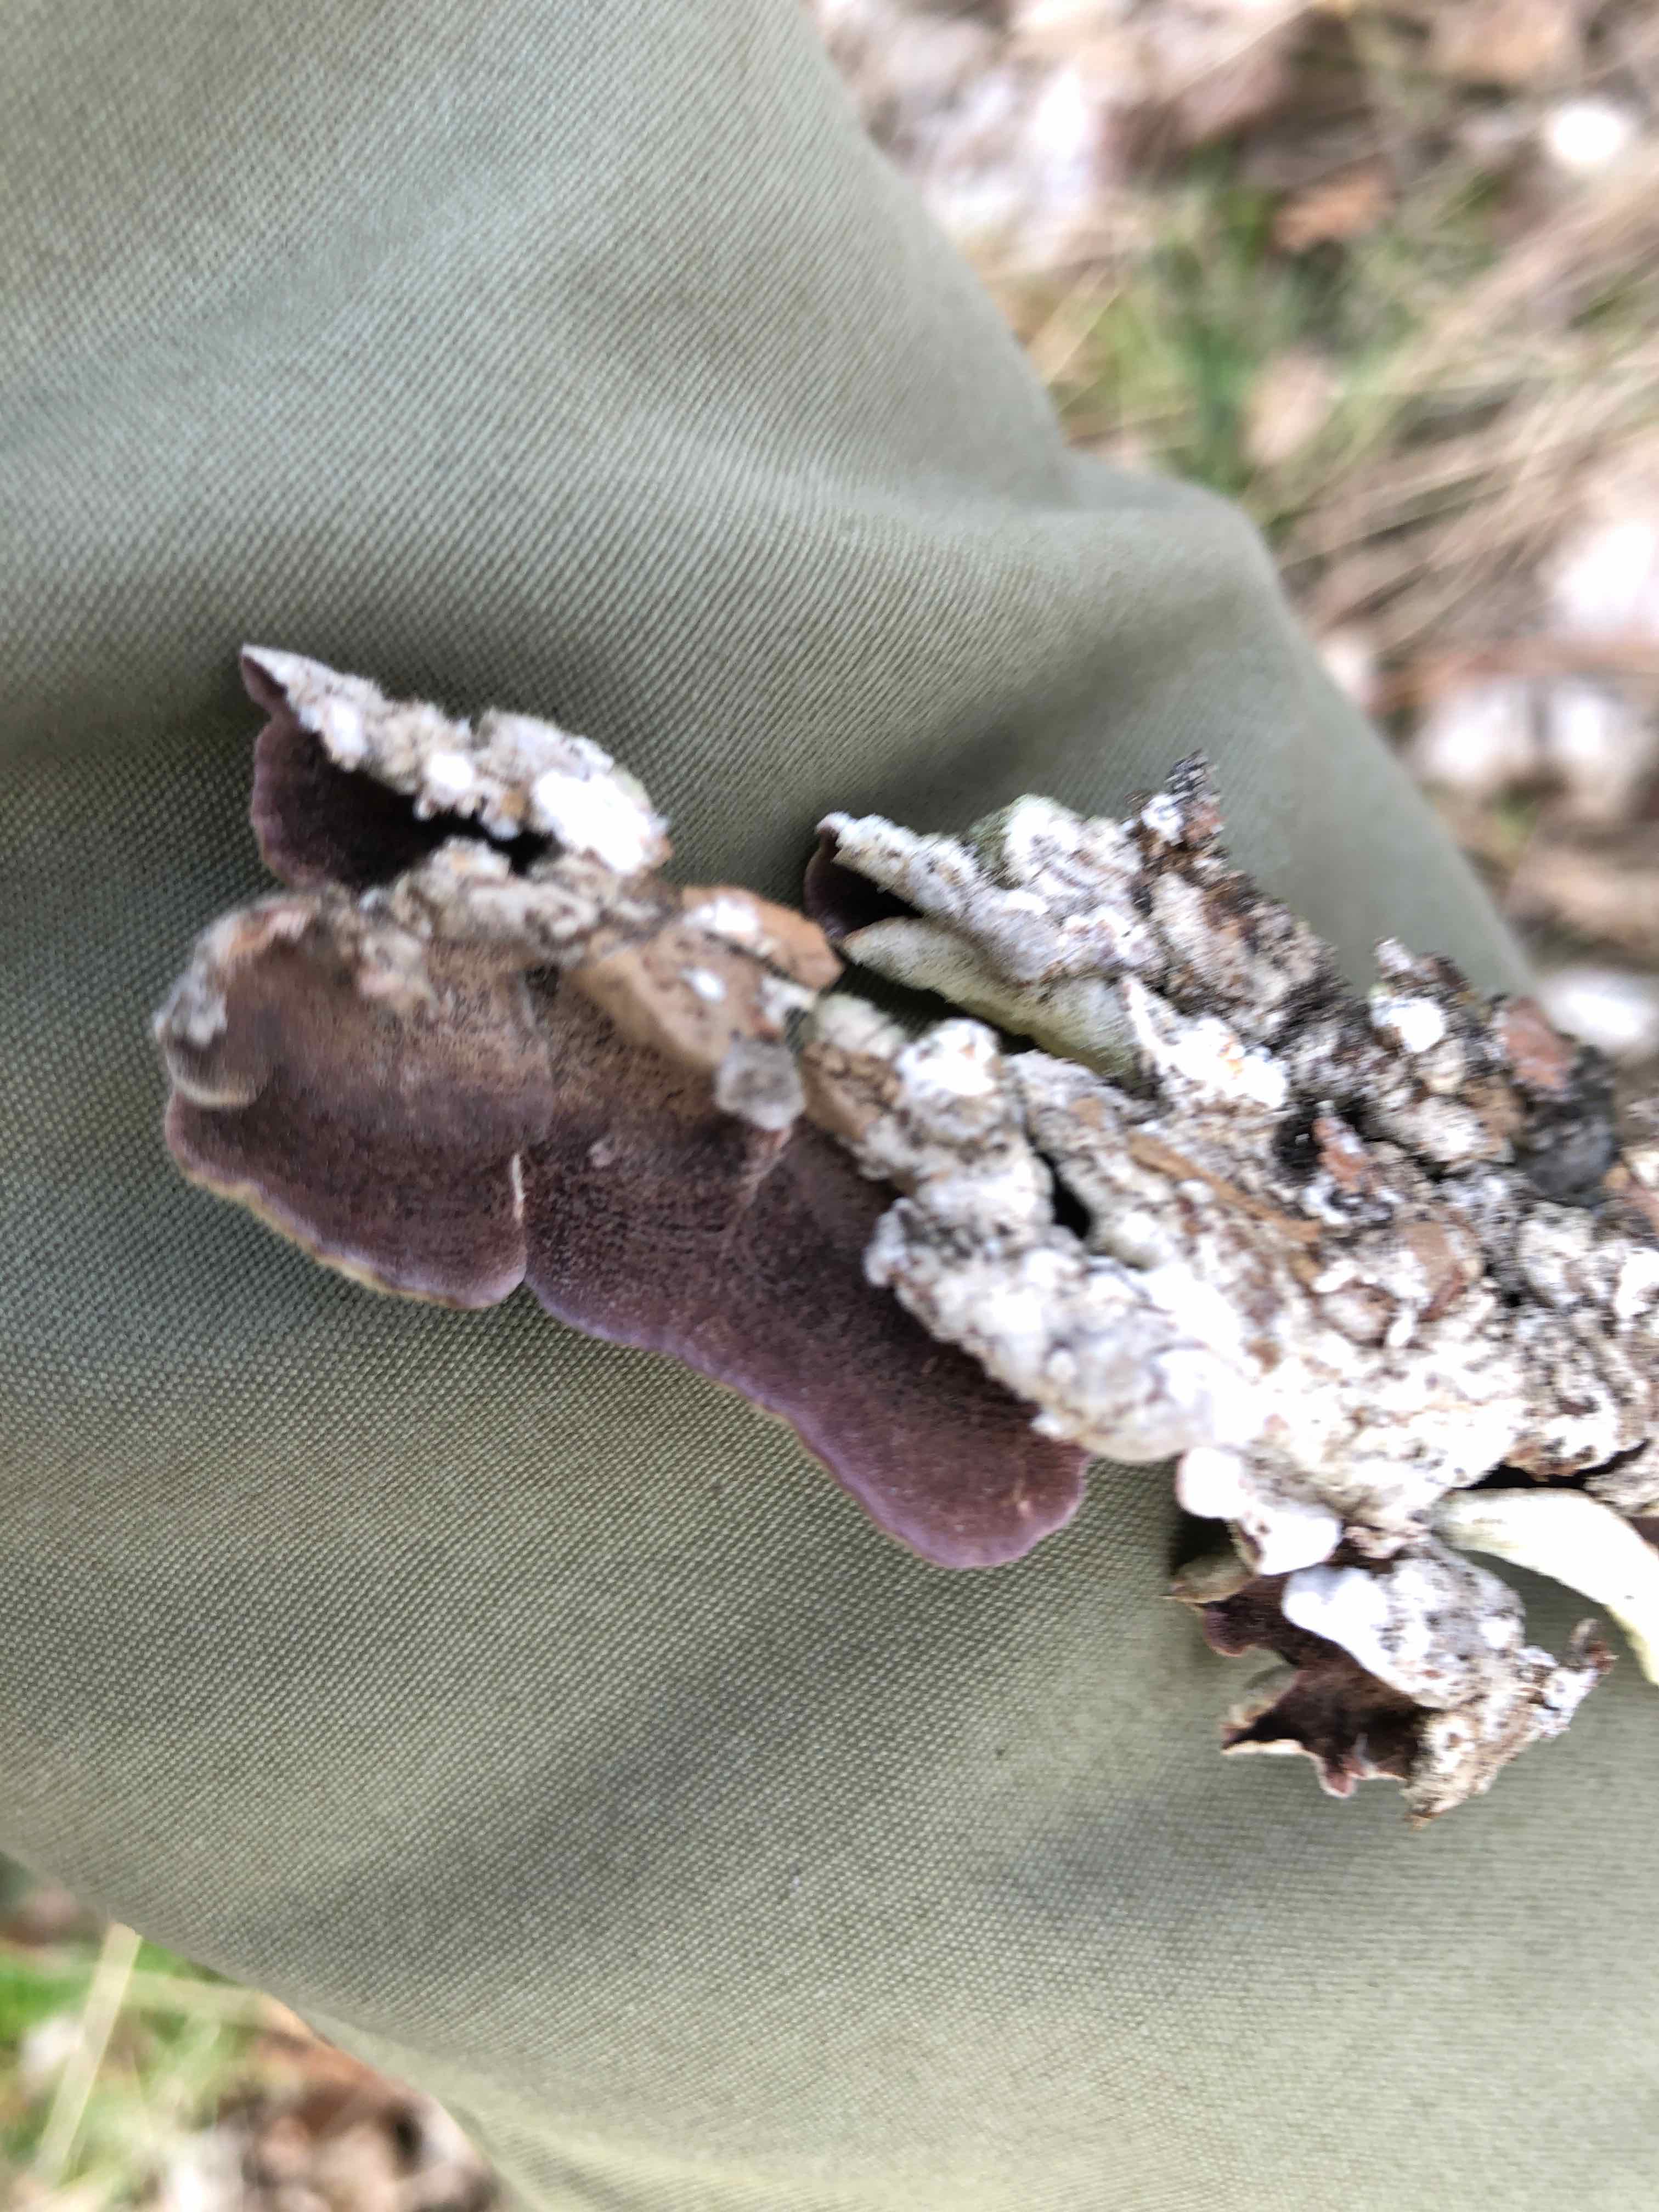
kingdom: Fungi
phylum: Basidiomycota
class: Agaricomycetes
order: Hymenochaetales
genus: Trichaptum
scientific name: Trichaptum abietinum
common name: almindelig violporesvamp
